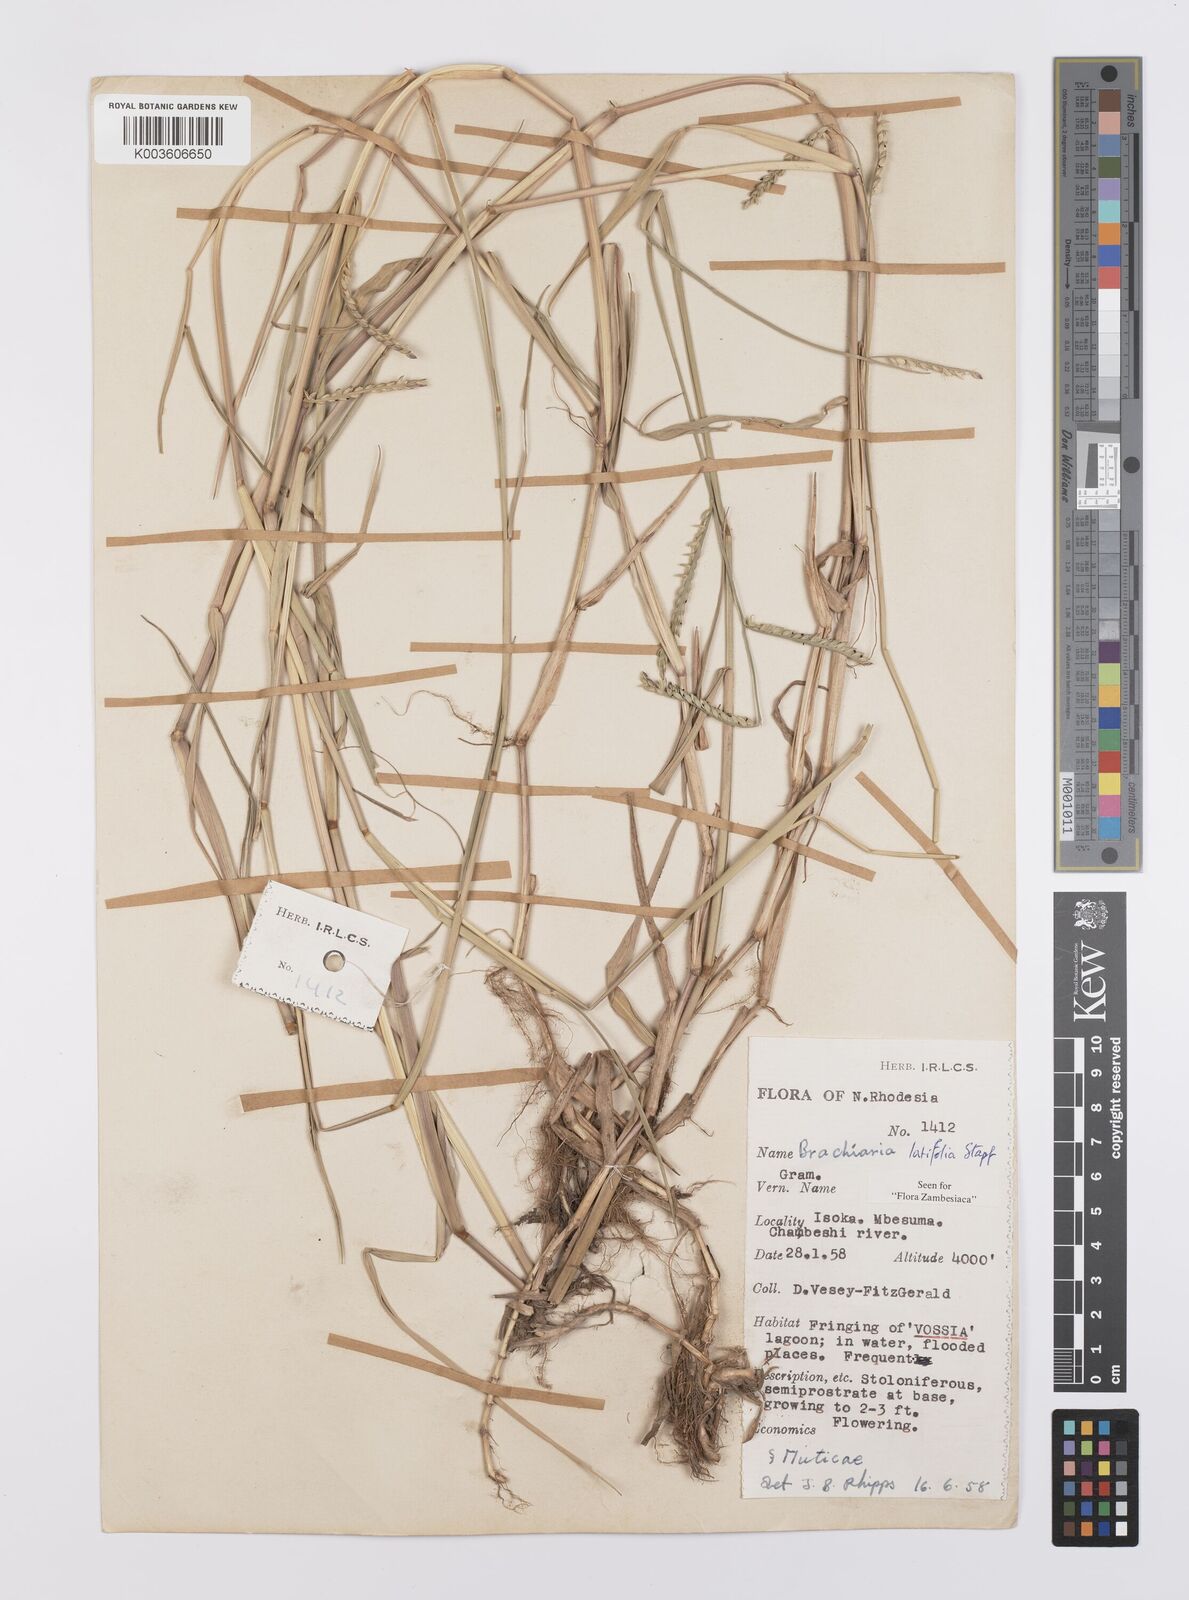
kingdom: Plantae
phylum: Tracheophyta
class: Liliopsida
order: Poales
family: Poaceae
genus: Urochloa
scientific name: Urochloa arrecta
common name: African signalgrass
